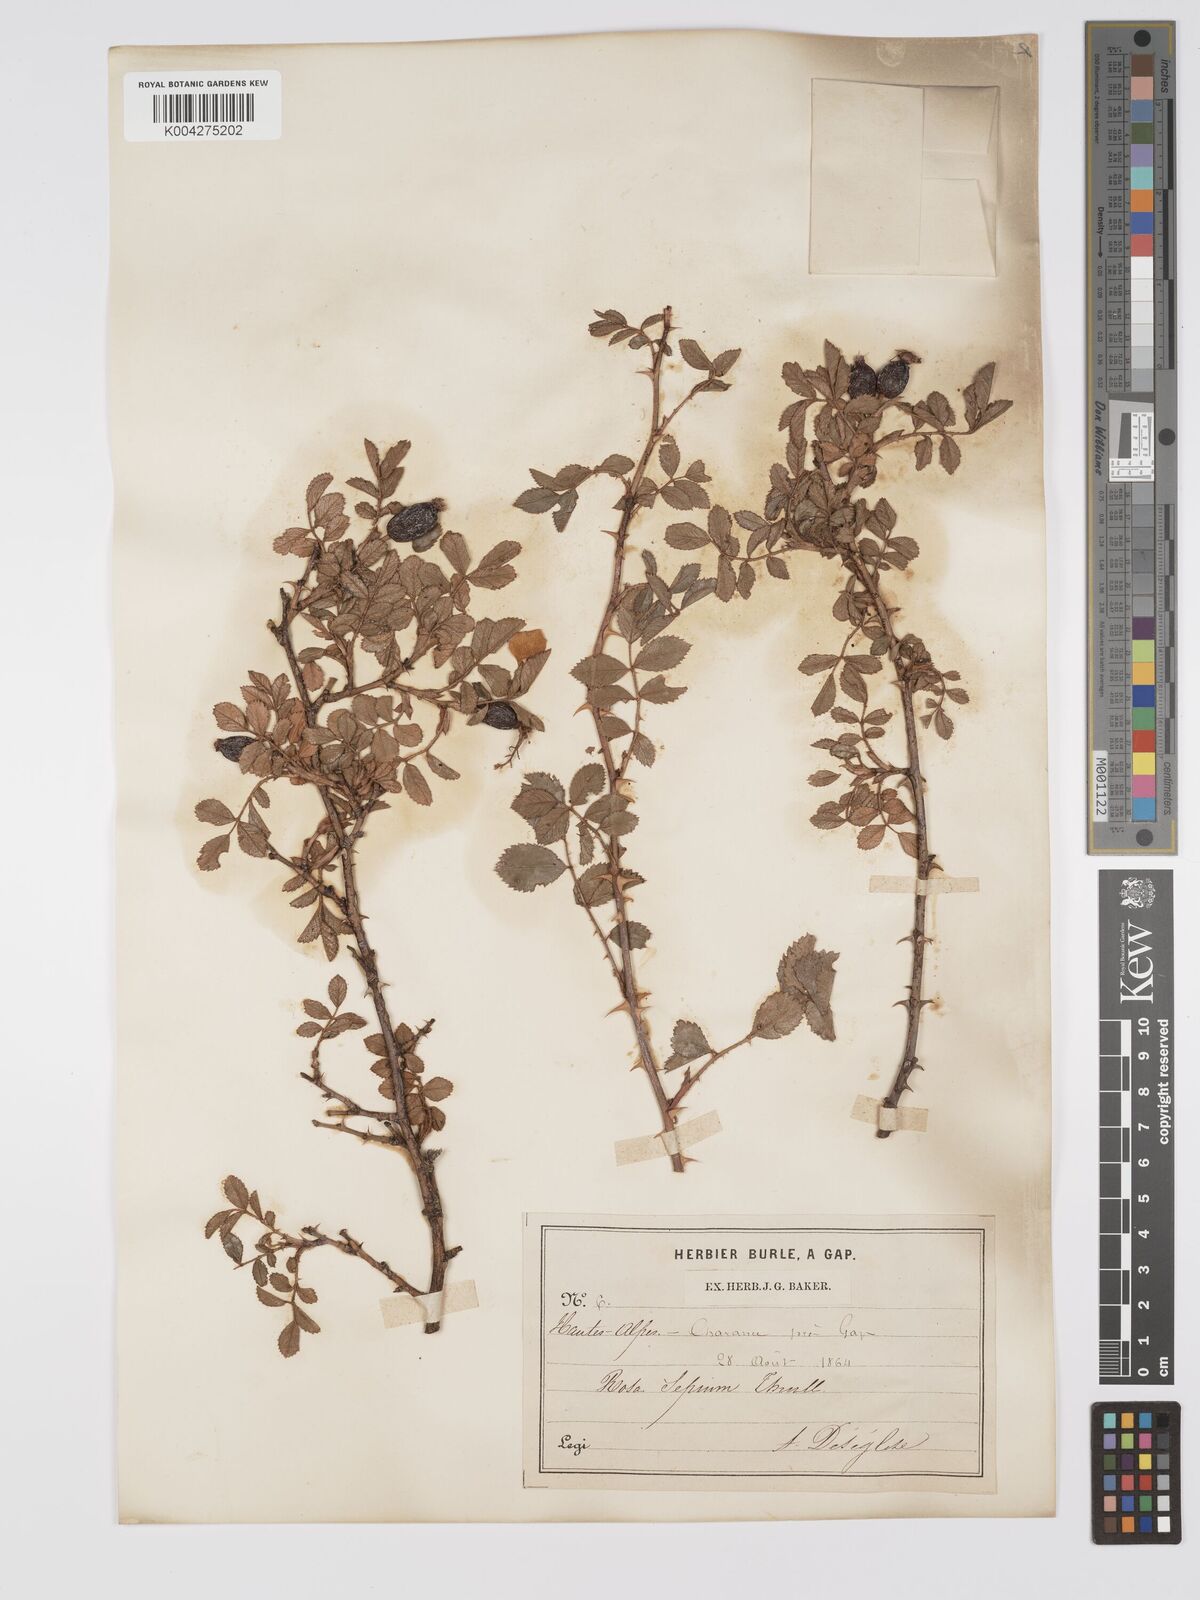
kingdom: Plantae
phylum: Tracheophyta
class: Magnoliopsida
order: Rosales
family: Rosaceae
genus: Rosa
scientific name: Rosa
